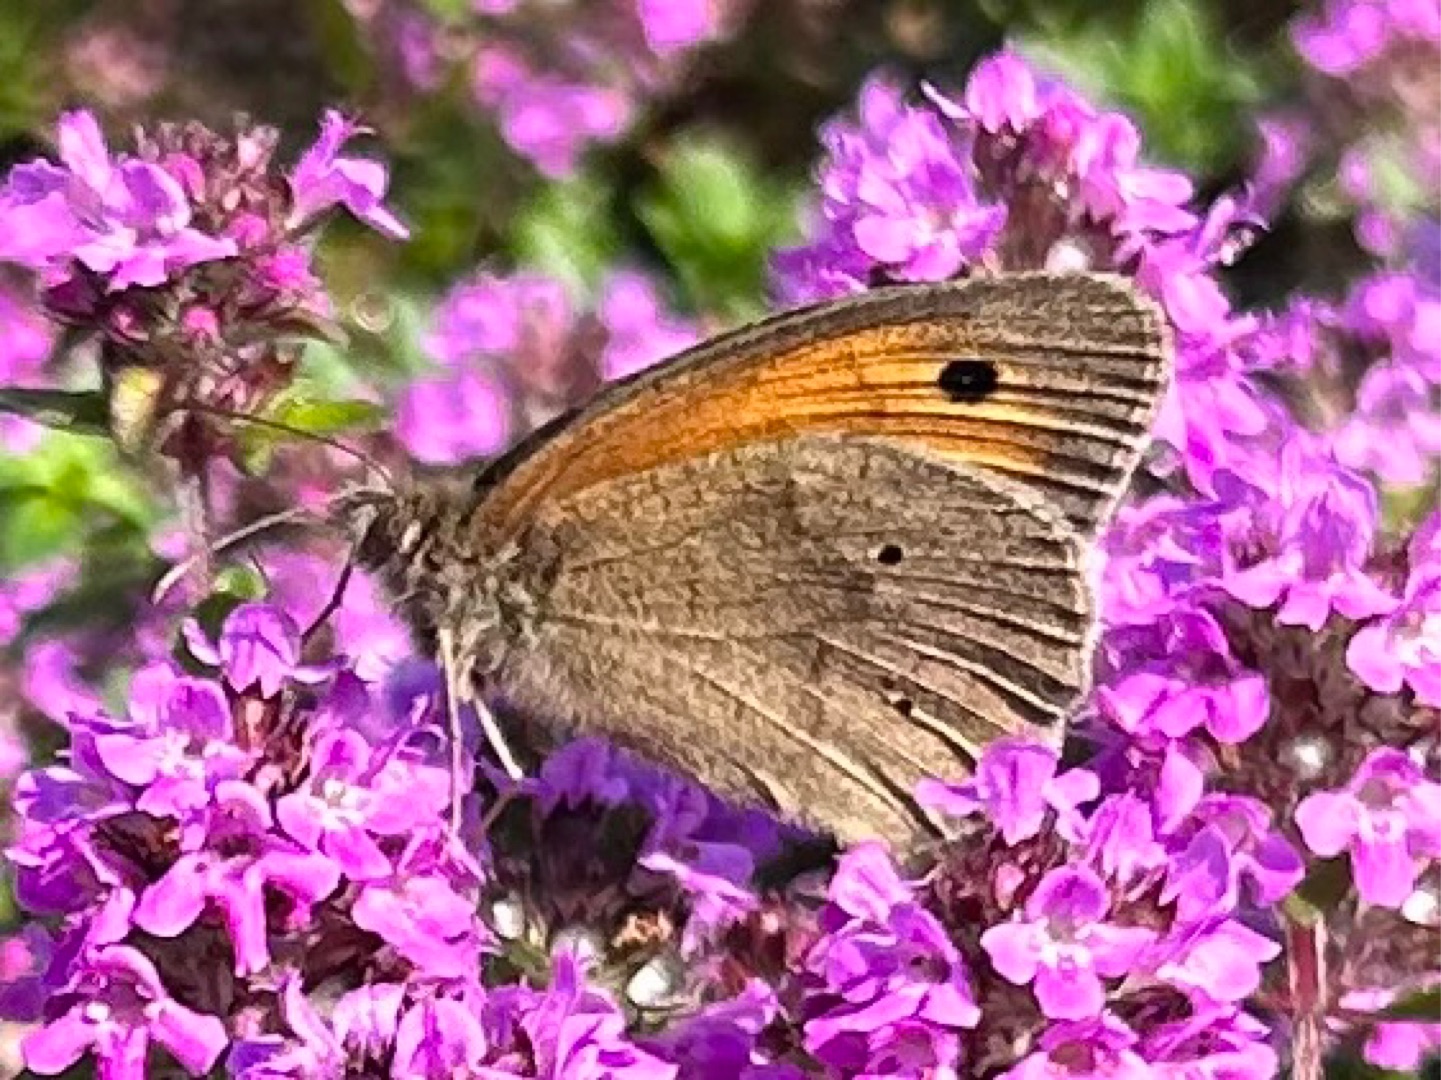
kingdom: Animalia
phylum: Arthropoda
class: Insecta
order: Lepidoptera
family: Nymphalidae
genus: Maniola
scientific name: Maniola jurtina
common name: Græsrandøje
